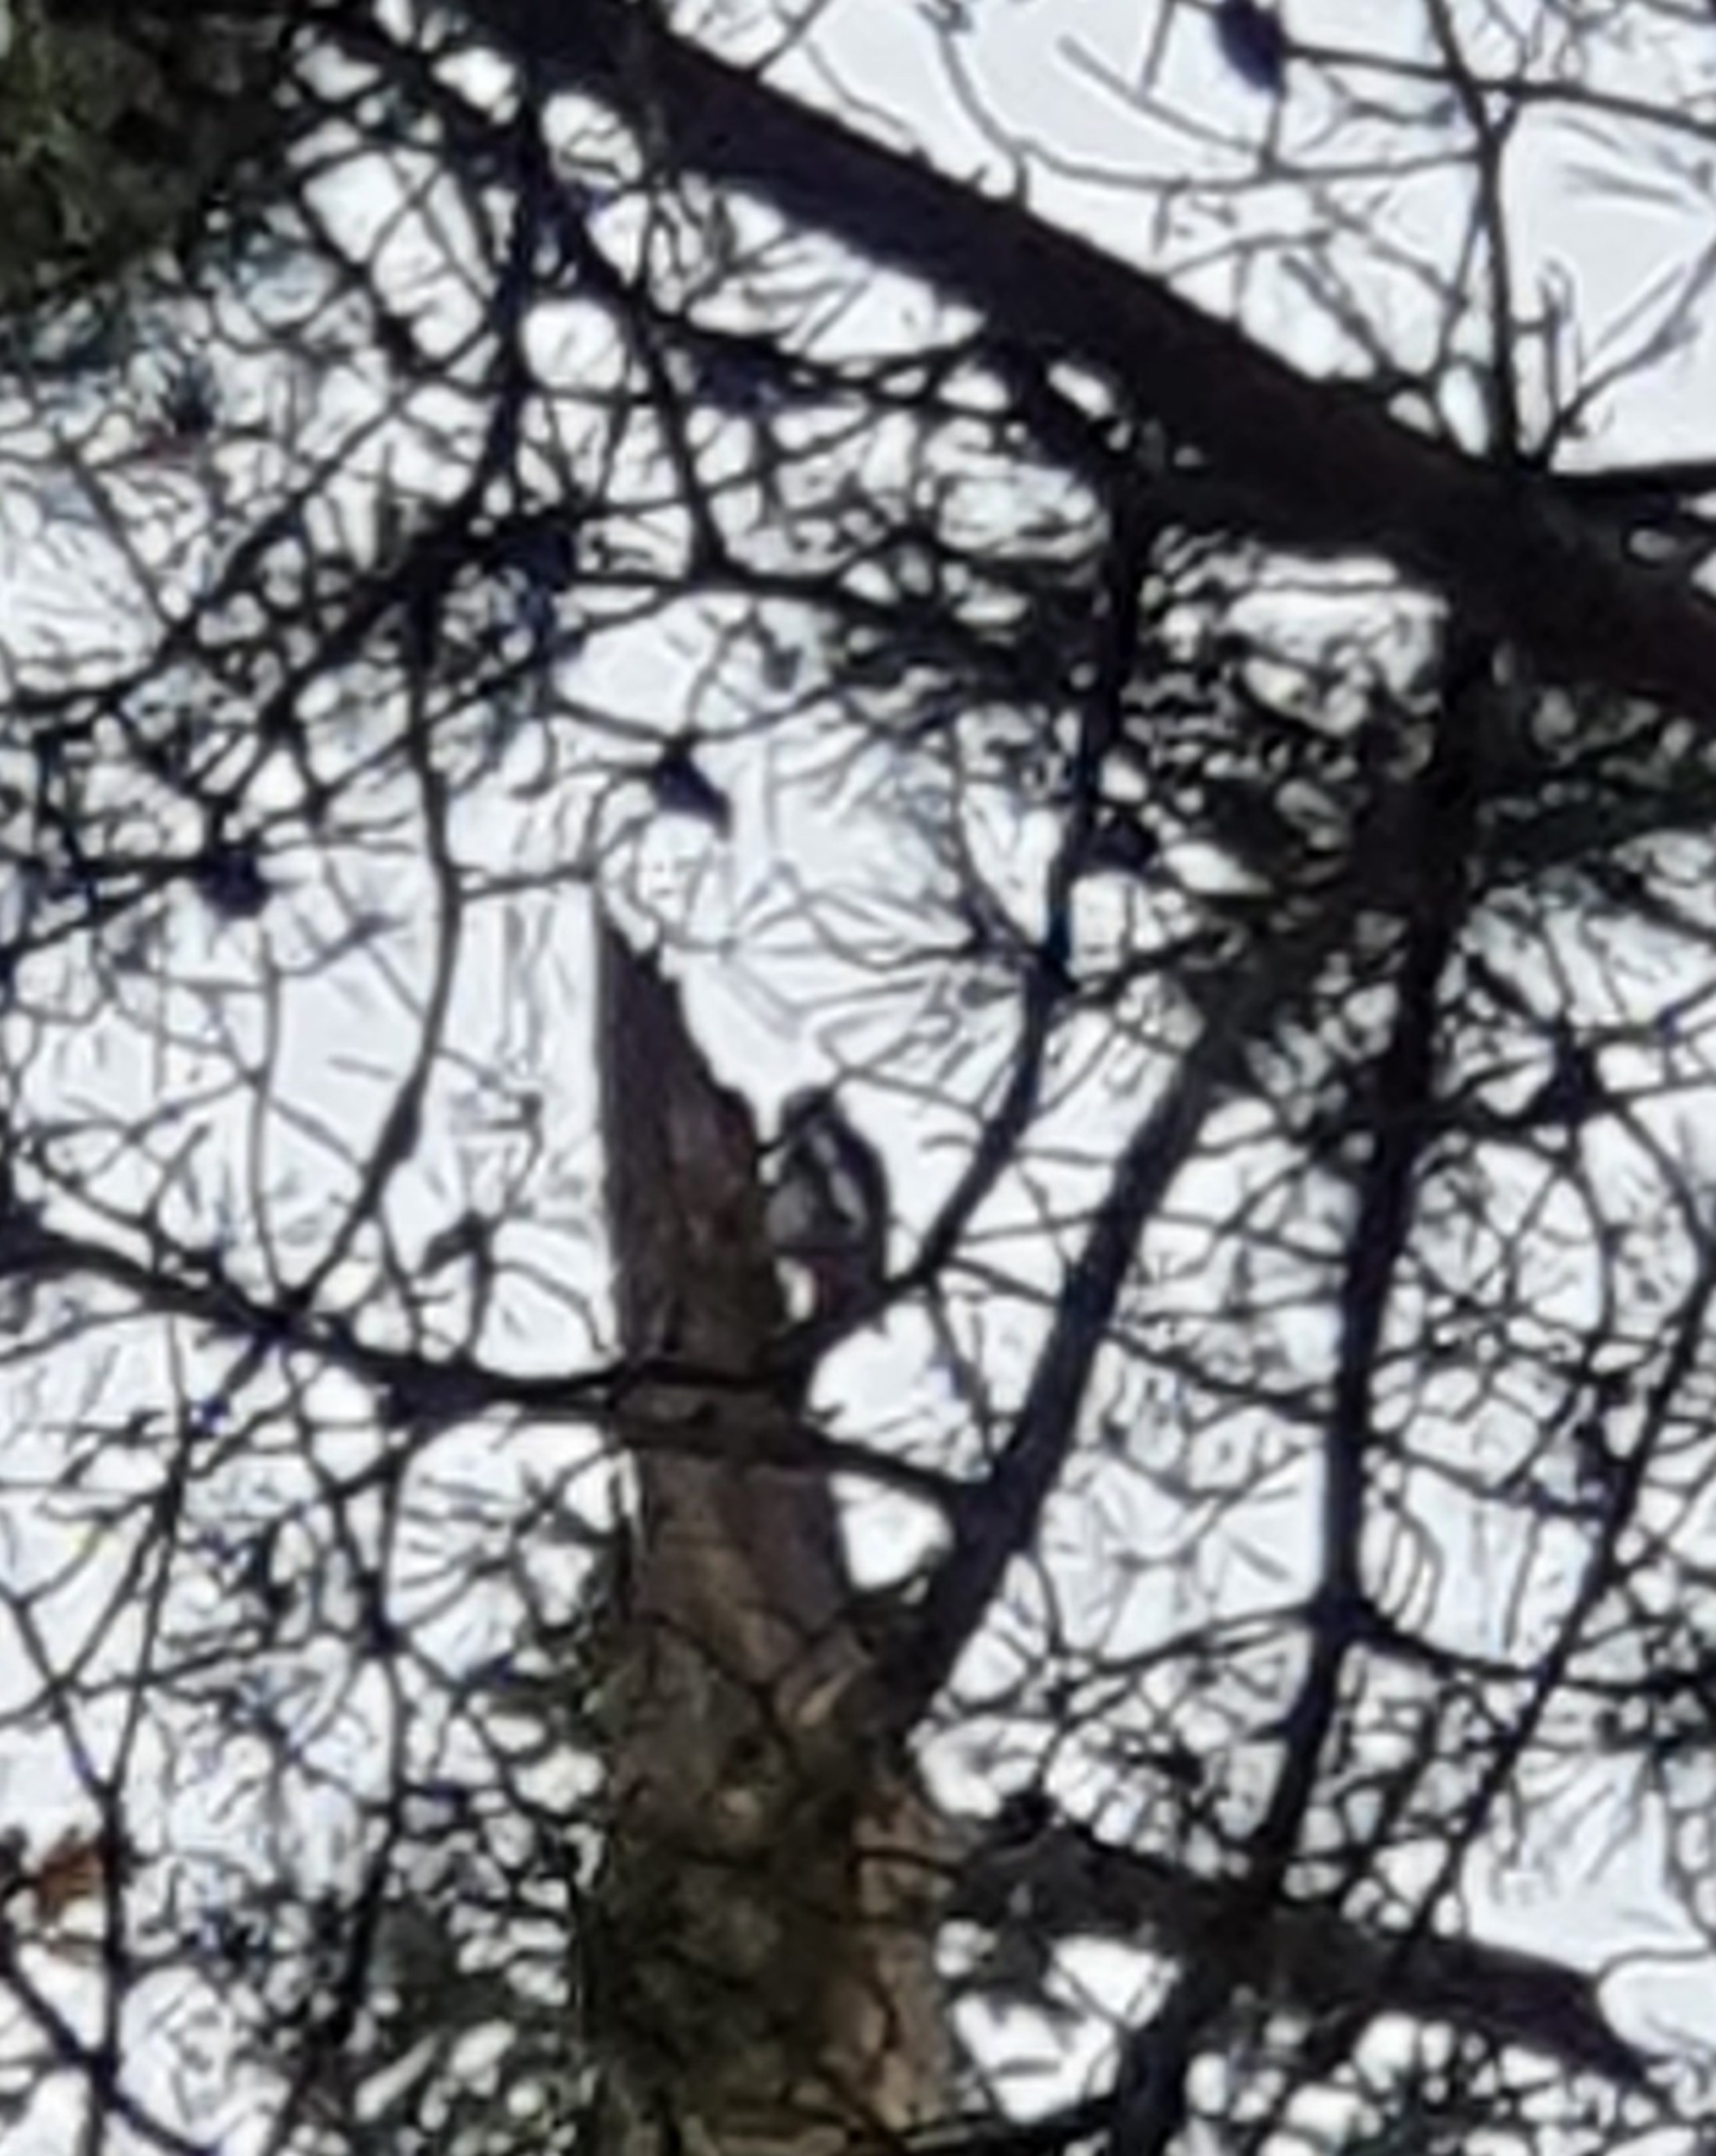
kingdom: Animalia
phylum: Chordata
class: Aves
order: Piciformes
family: Picidae
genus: Dendrocopos
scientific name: Dendrocopos major
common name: Stor flagspætte
